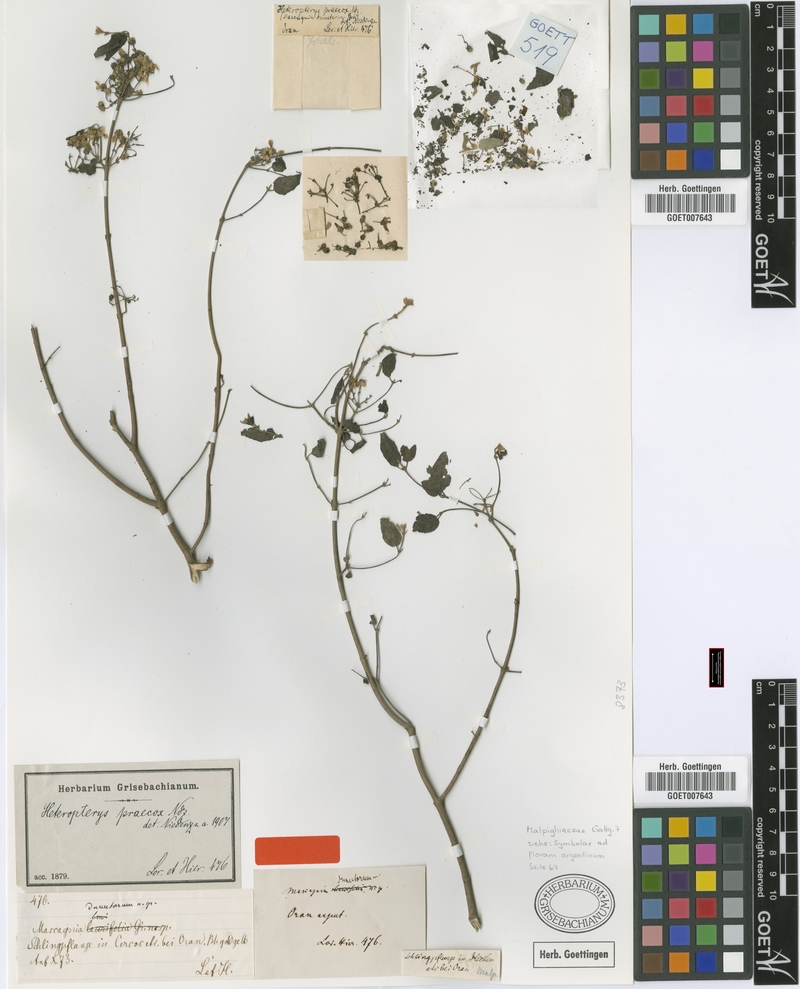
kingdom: Plantae
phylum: Tracheophyta
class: Magnoliopsida
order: Malpighiales
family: Malpighiaceae
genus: Heteropterys
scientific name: Heteropterys dumetorum
